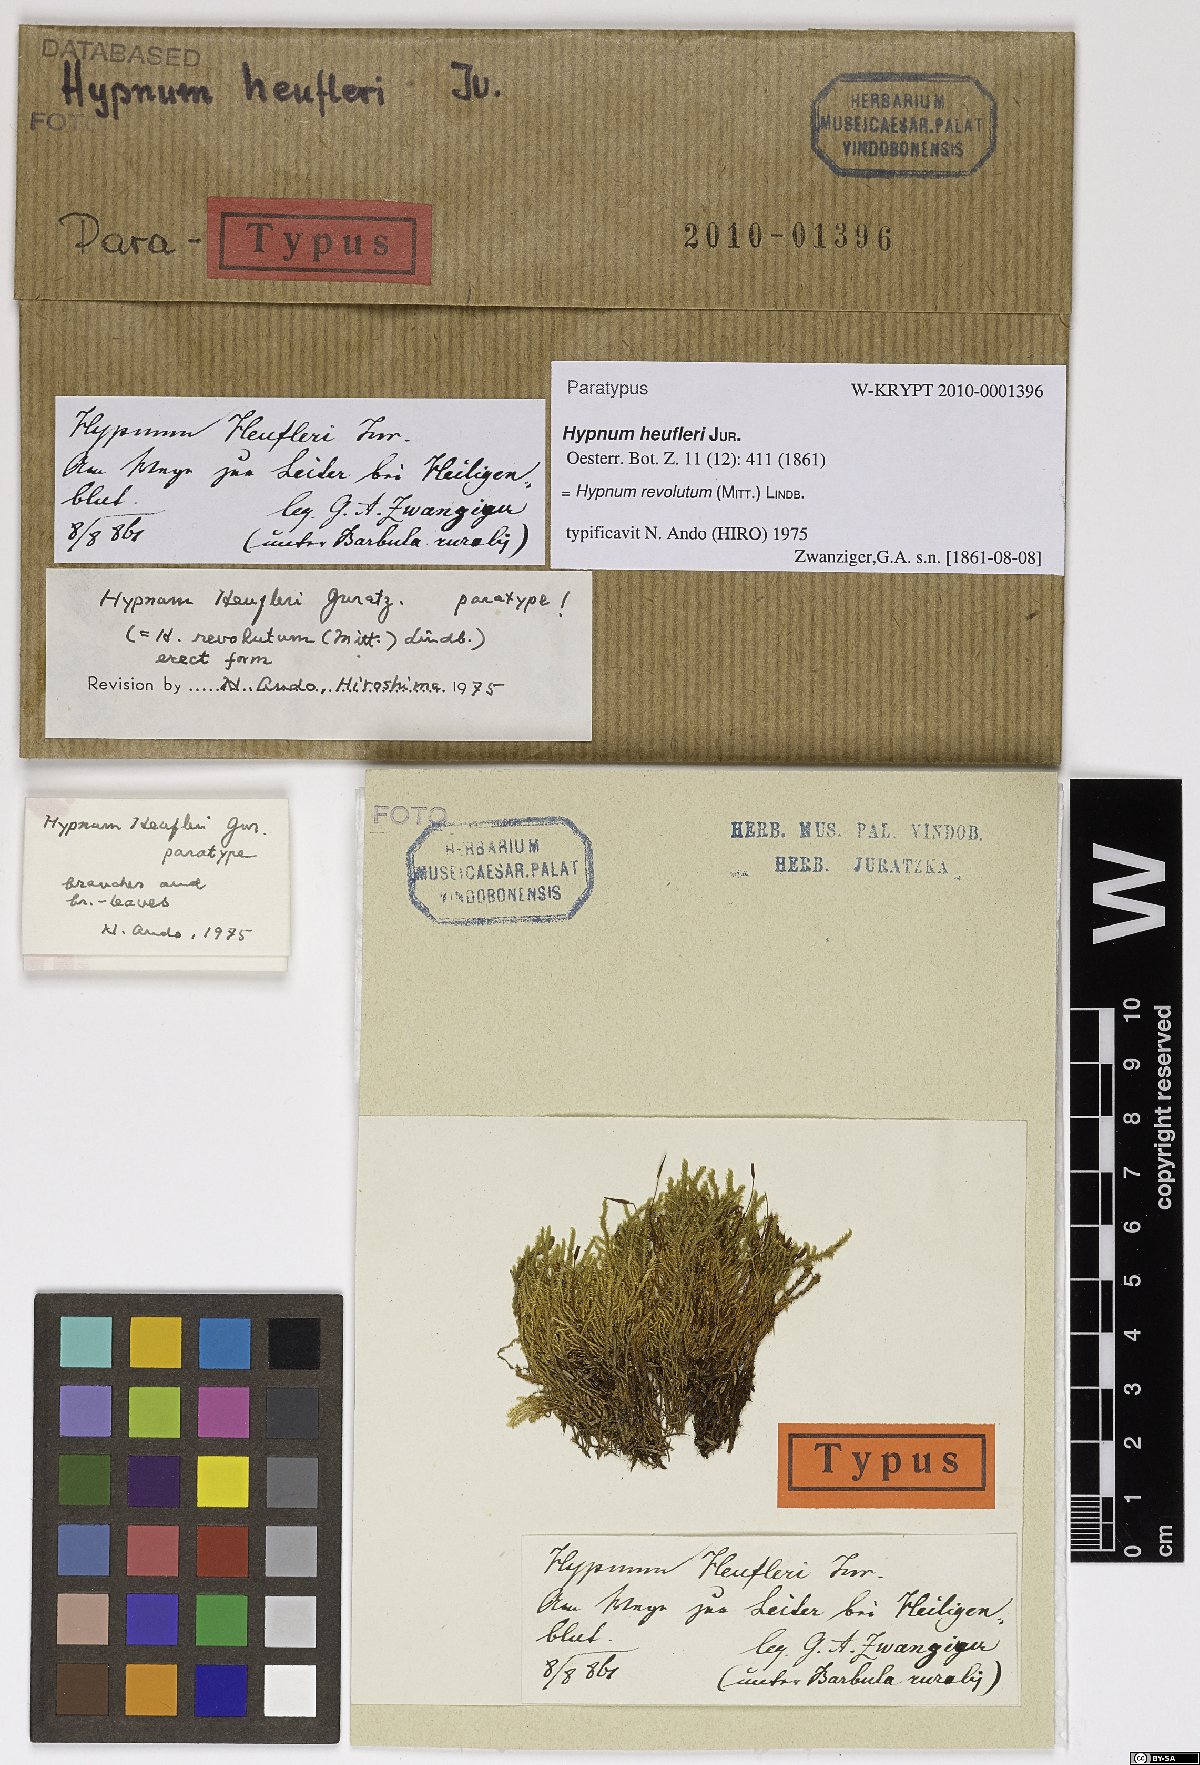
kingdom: Plantae
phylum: Bryophyta
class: Bryopsida
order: Hypnales
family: Pylaisiaceae
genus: Roaldia
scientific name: Roaldia revoluta
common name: Revolute plait-moss
